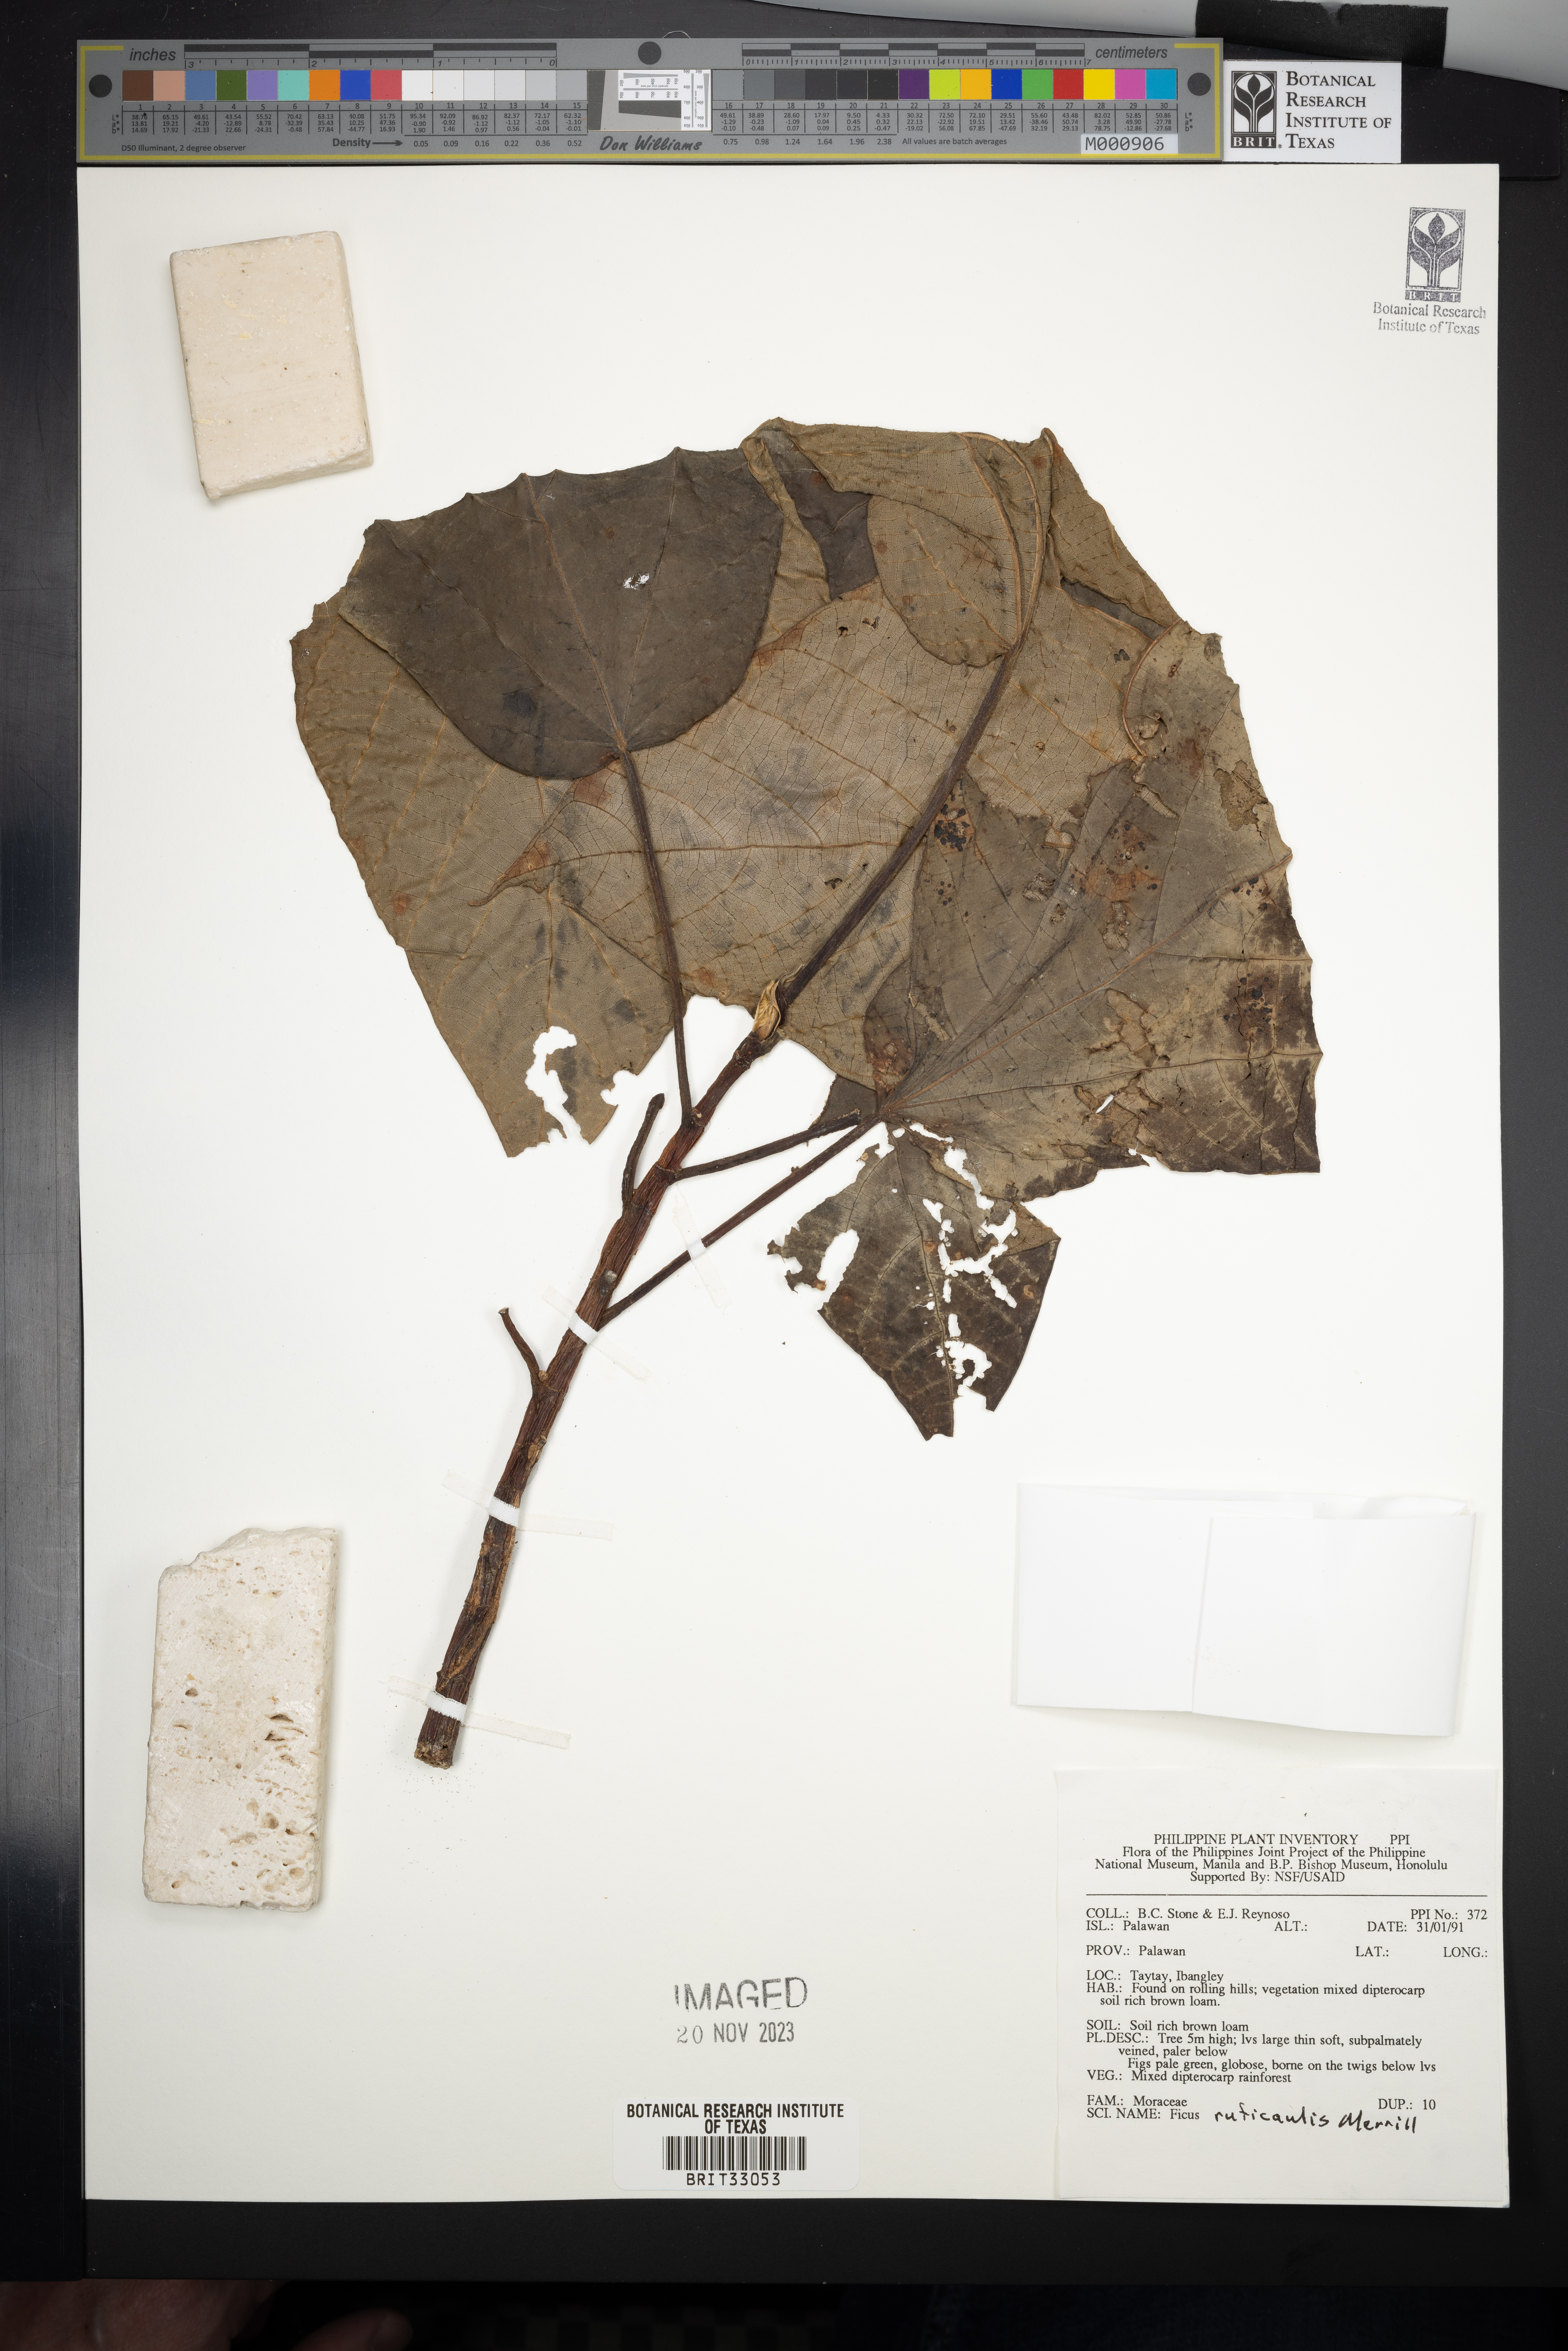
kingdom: Plantae
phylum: Tracheophyta
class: Magnoliopsida
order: Rosales
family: Moraceae
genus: Ficus
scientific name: Ficus ruficaulis
